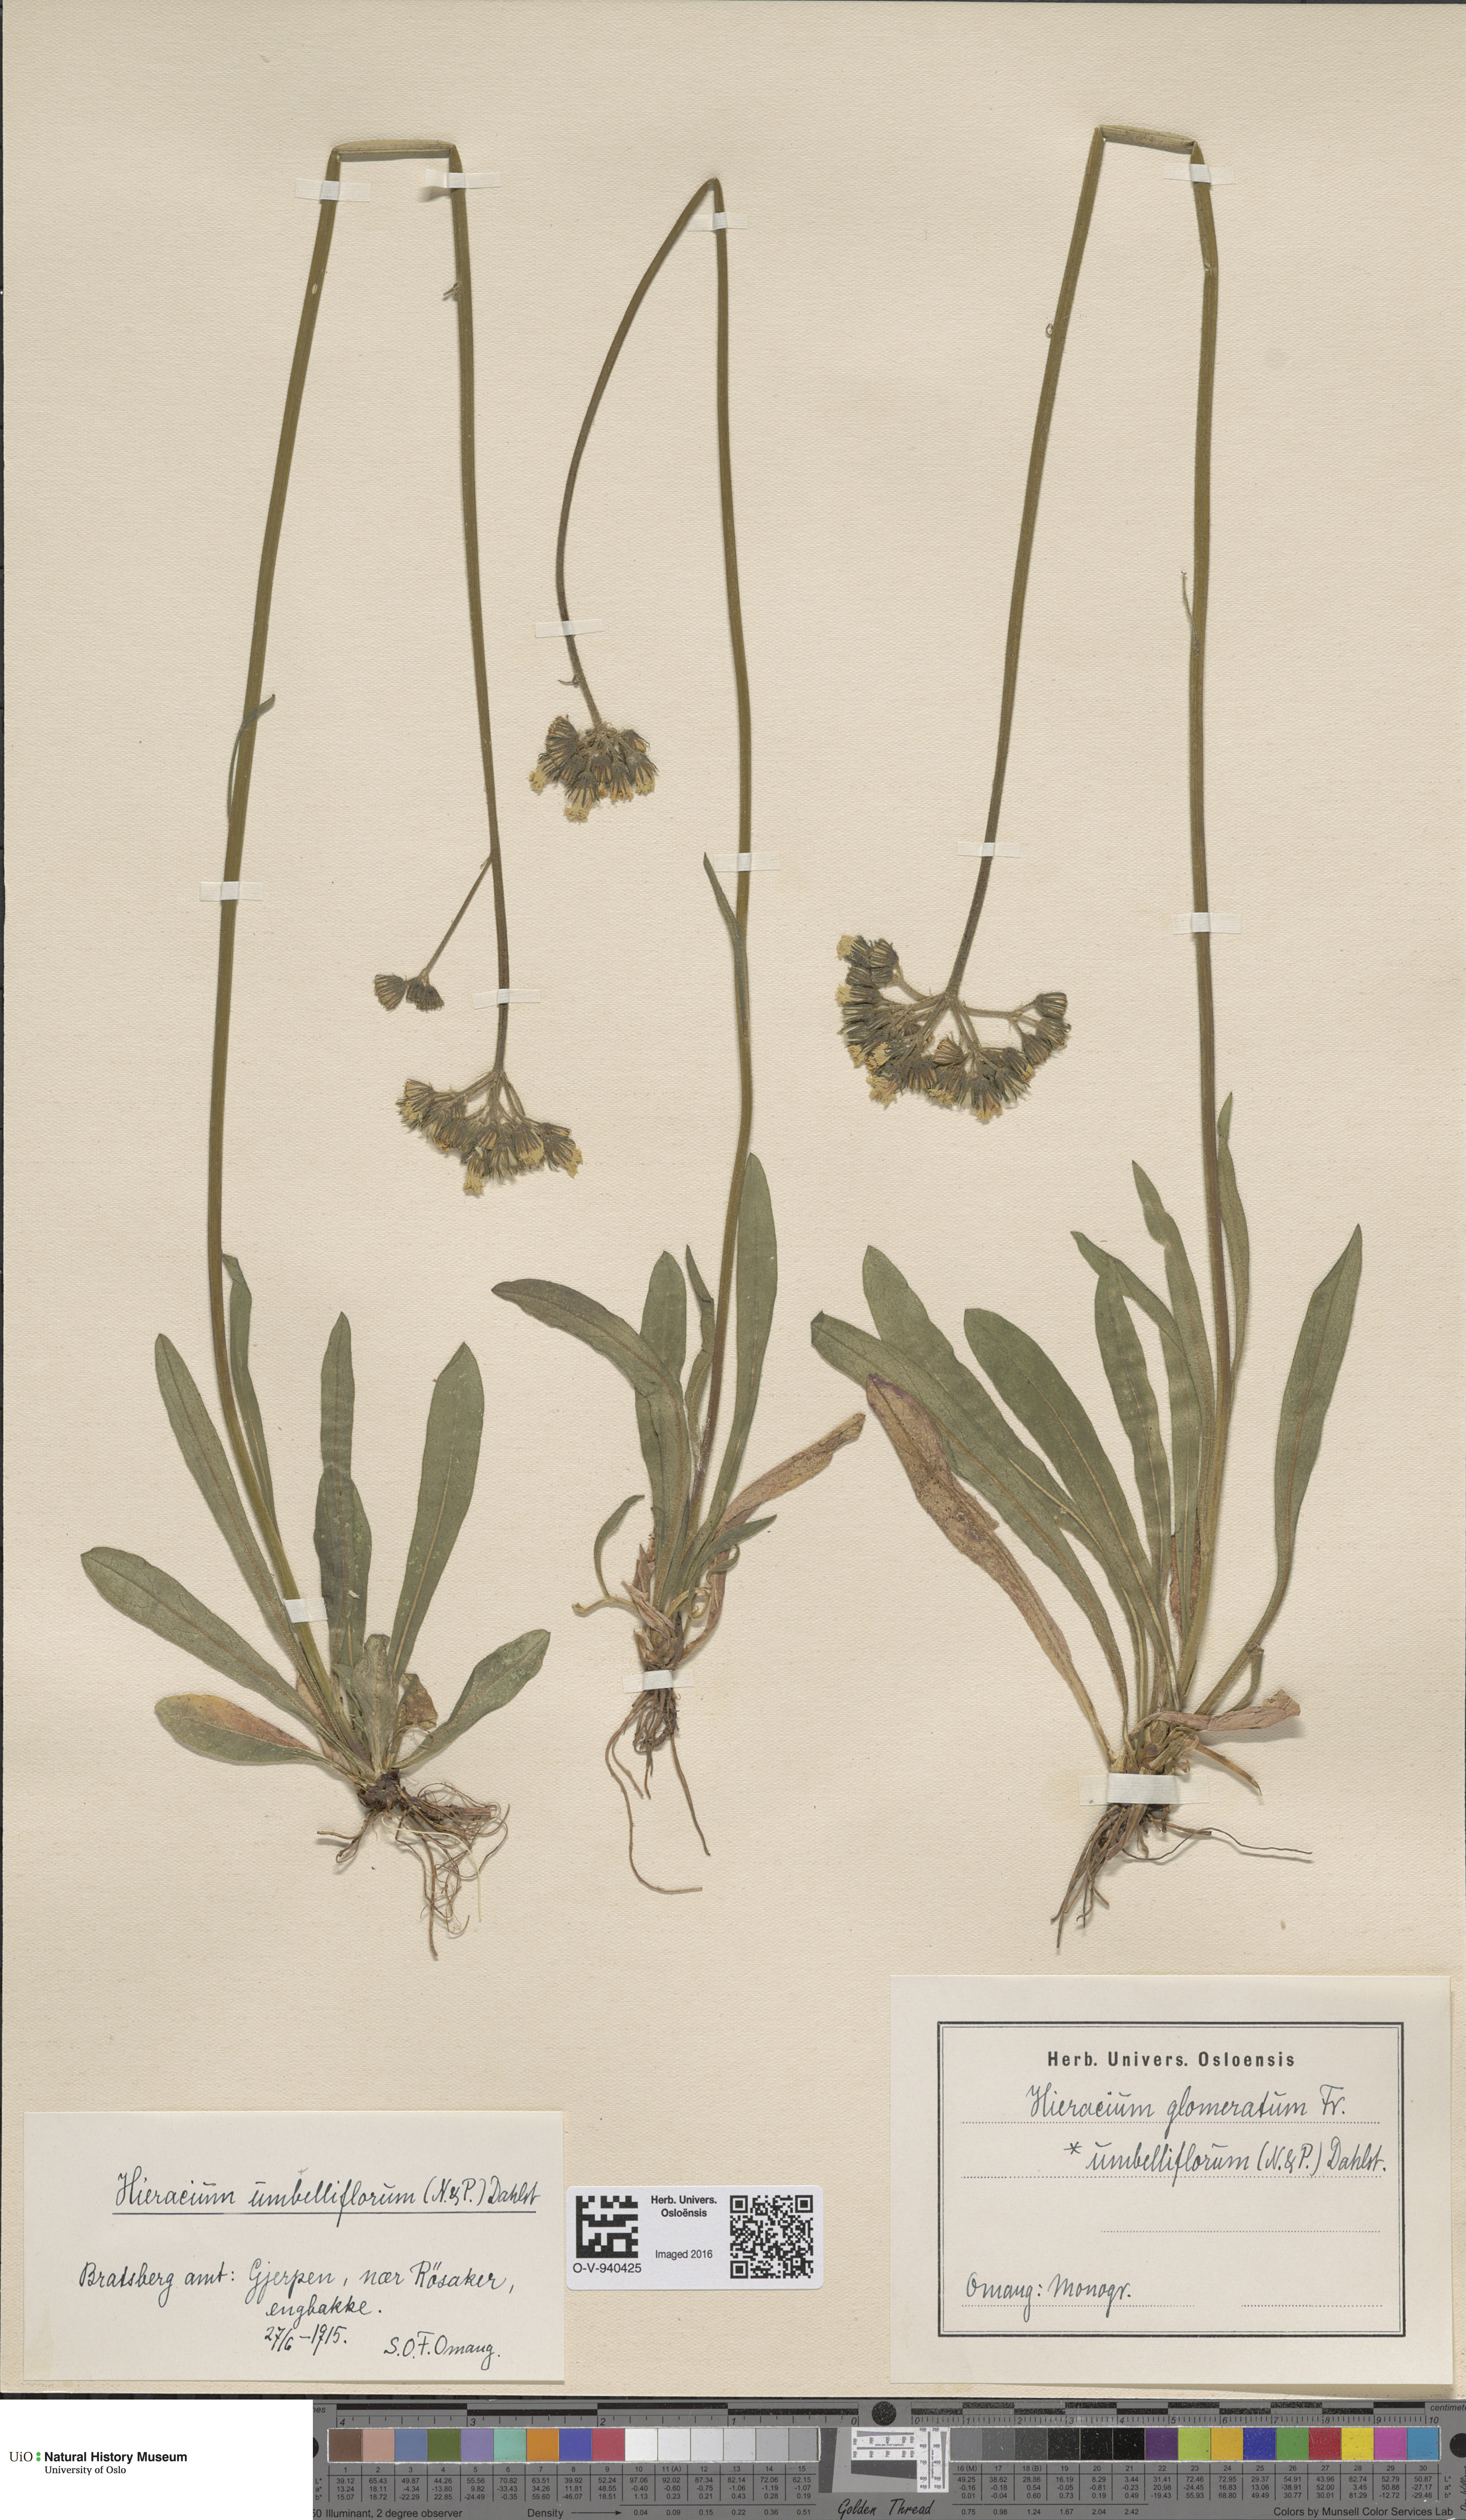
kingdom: Plantae
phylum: Tracheophyta
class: Magnoliopsida
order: Asterales
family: Asteraceae
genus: Pilosella
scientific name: Pilosella glomerata
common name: Queen devil hawkweed
